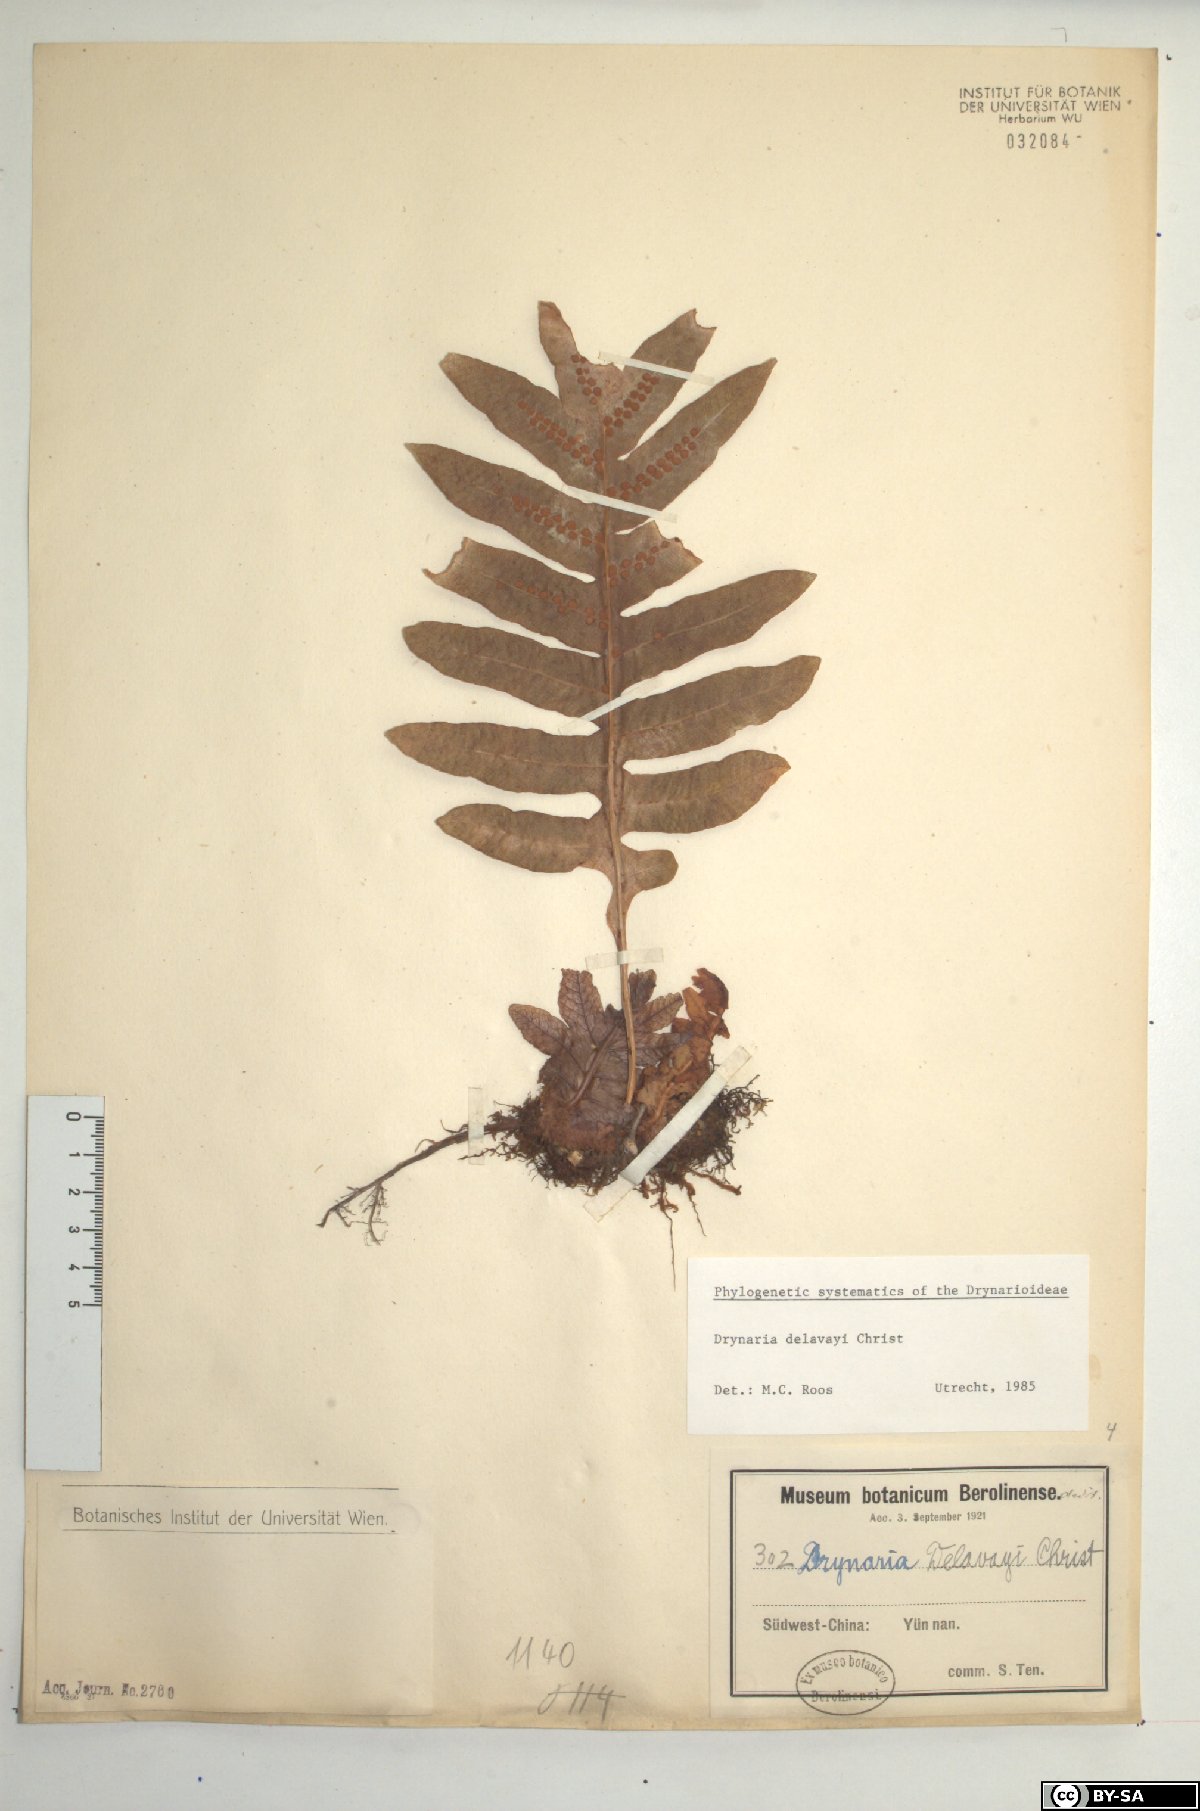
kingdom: Plantae
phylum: Tracheophyta
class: Polypodiopsida
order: Polypodiales
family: Polypodiaceae
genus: Drynaria
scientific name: Drynaria delavayi
